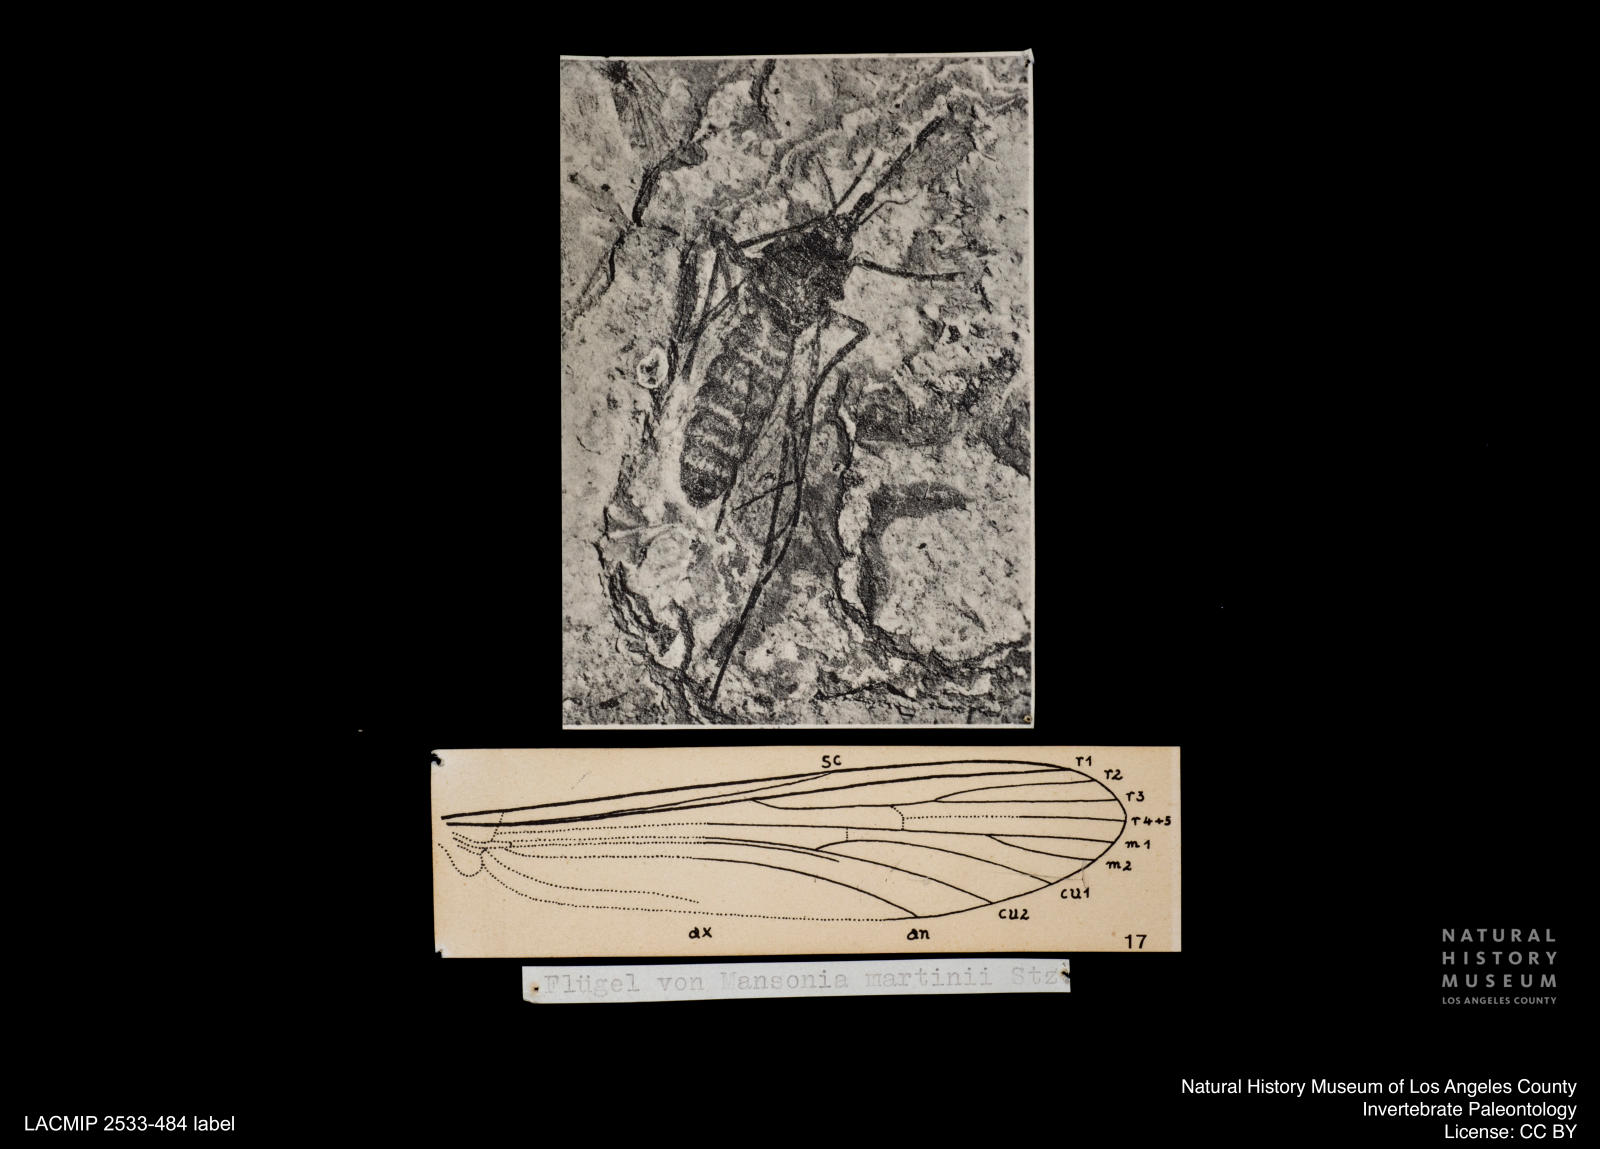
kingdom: Animalia
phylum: Arthropoda
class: Insecta
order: Diptera
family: Culicidae
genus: Mansonia
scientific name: Mansonia martinii
